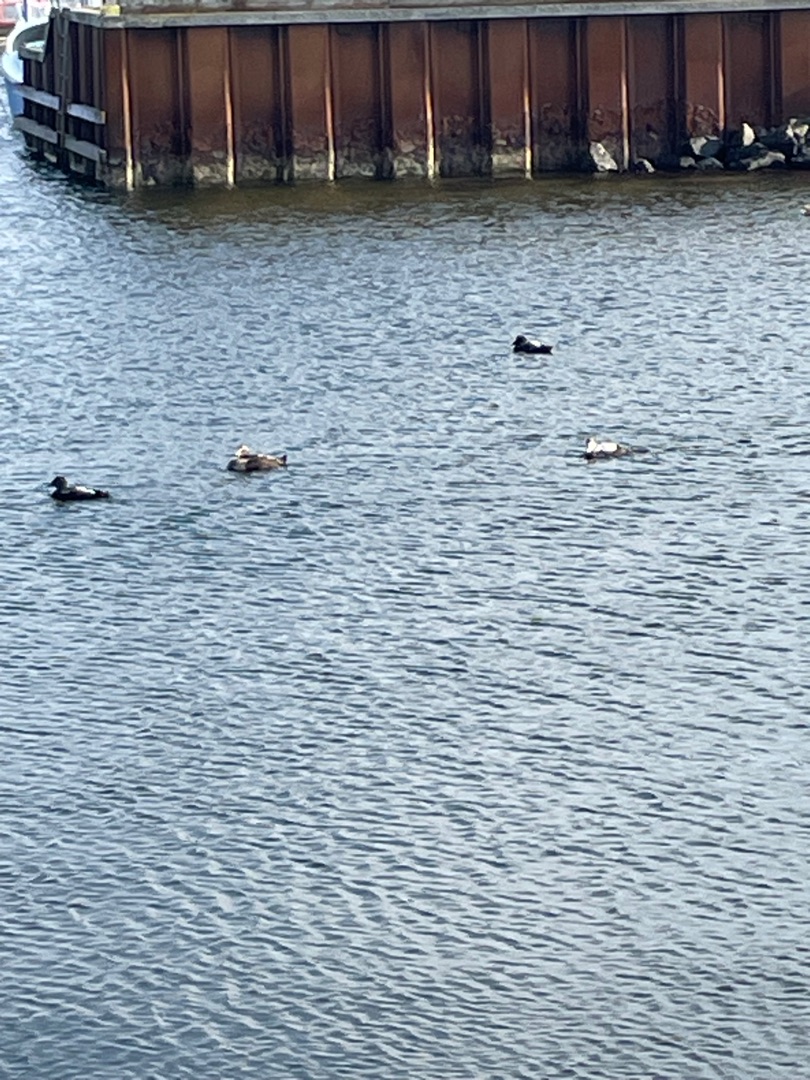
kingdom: Animalia
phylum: Chordata
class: Aves
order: Anseriformes
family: Anatidae
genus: Somateria
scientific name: Somateria mollissima
